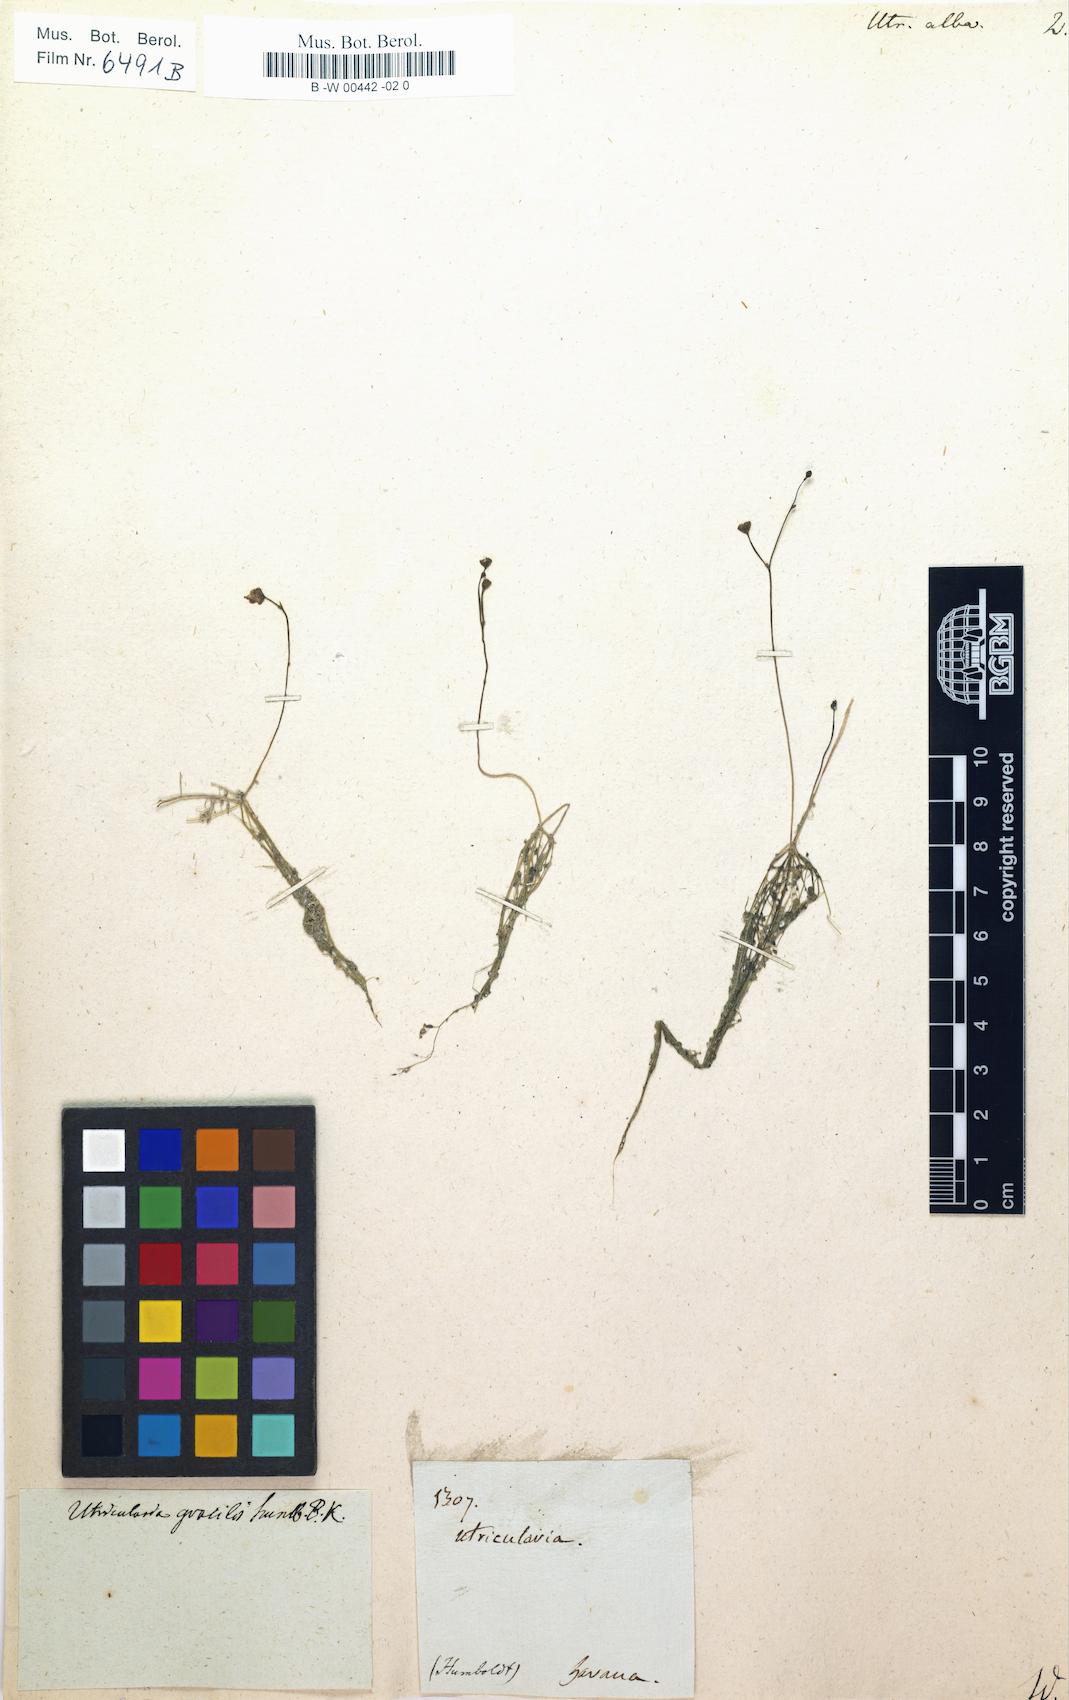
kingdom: Plantae
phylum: Tracheophyta
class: Magnoliopsida
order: Lamiales
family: Lentibulariaceae
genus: Utricularia
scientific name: Utricularia fibrosa
